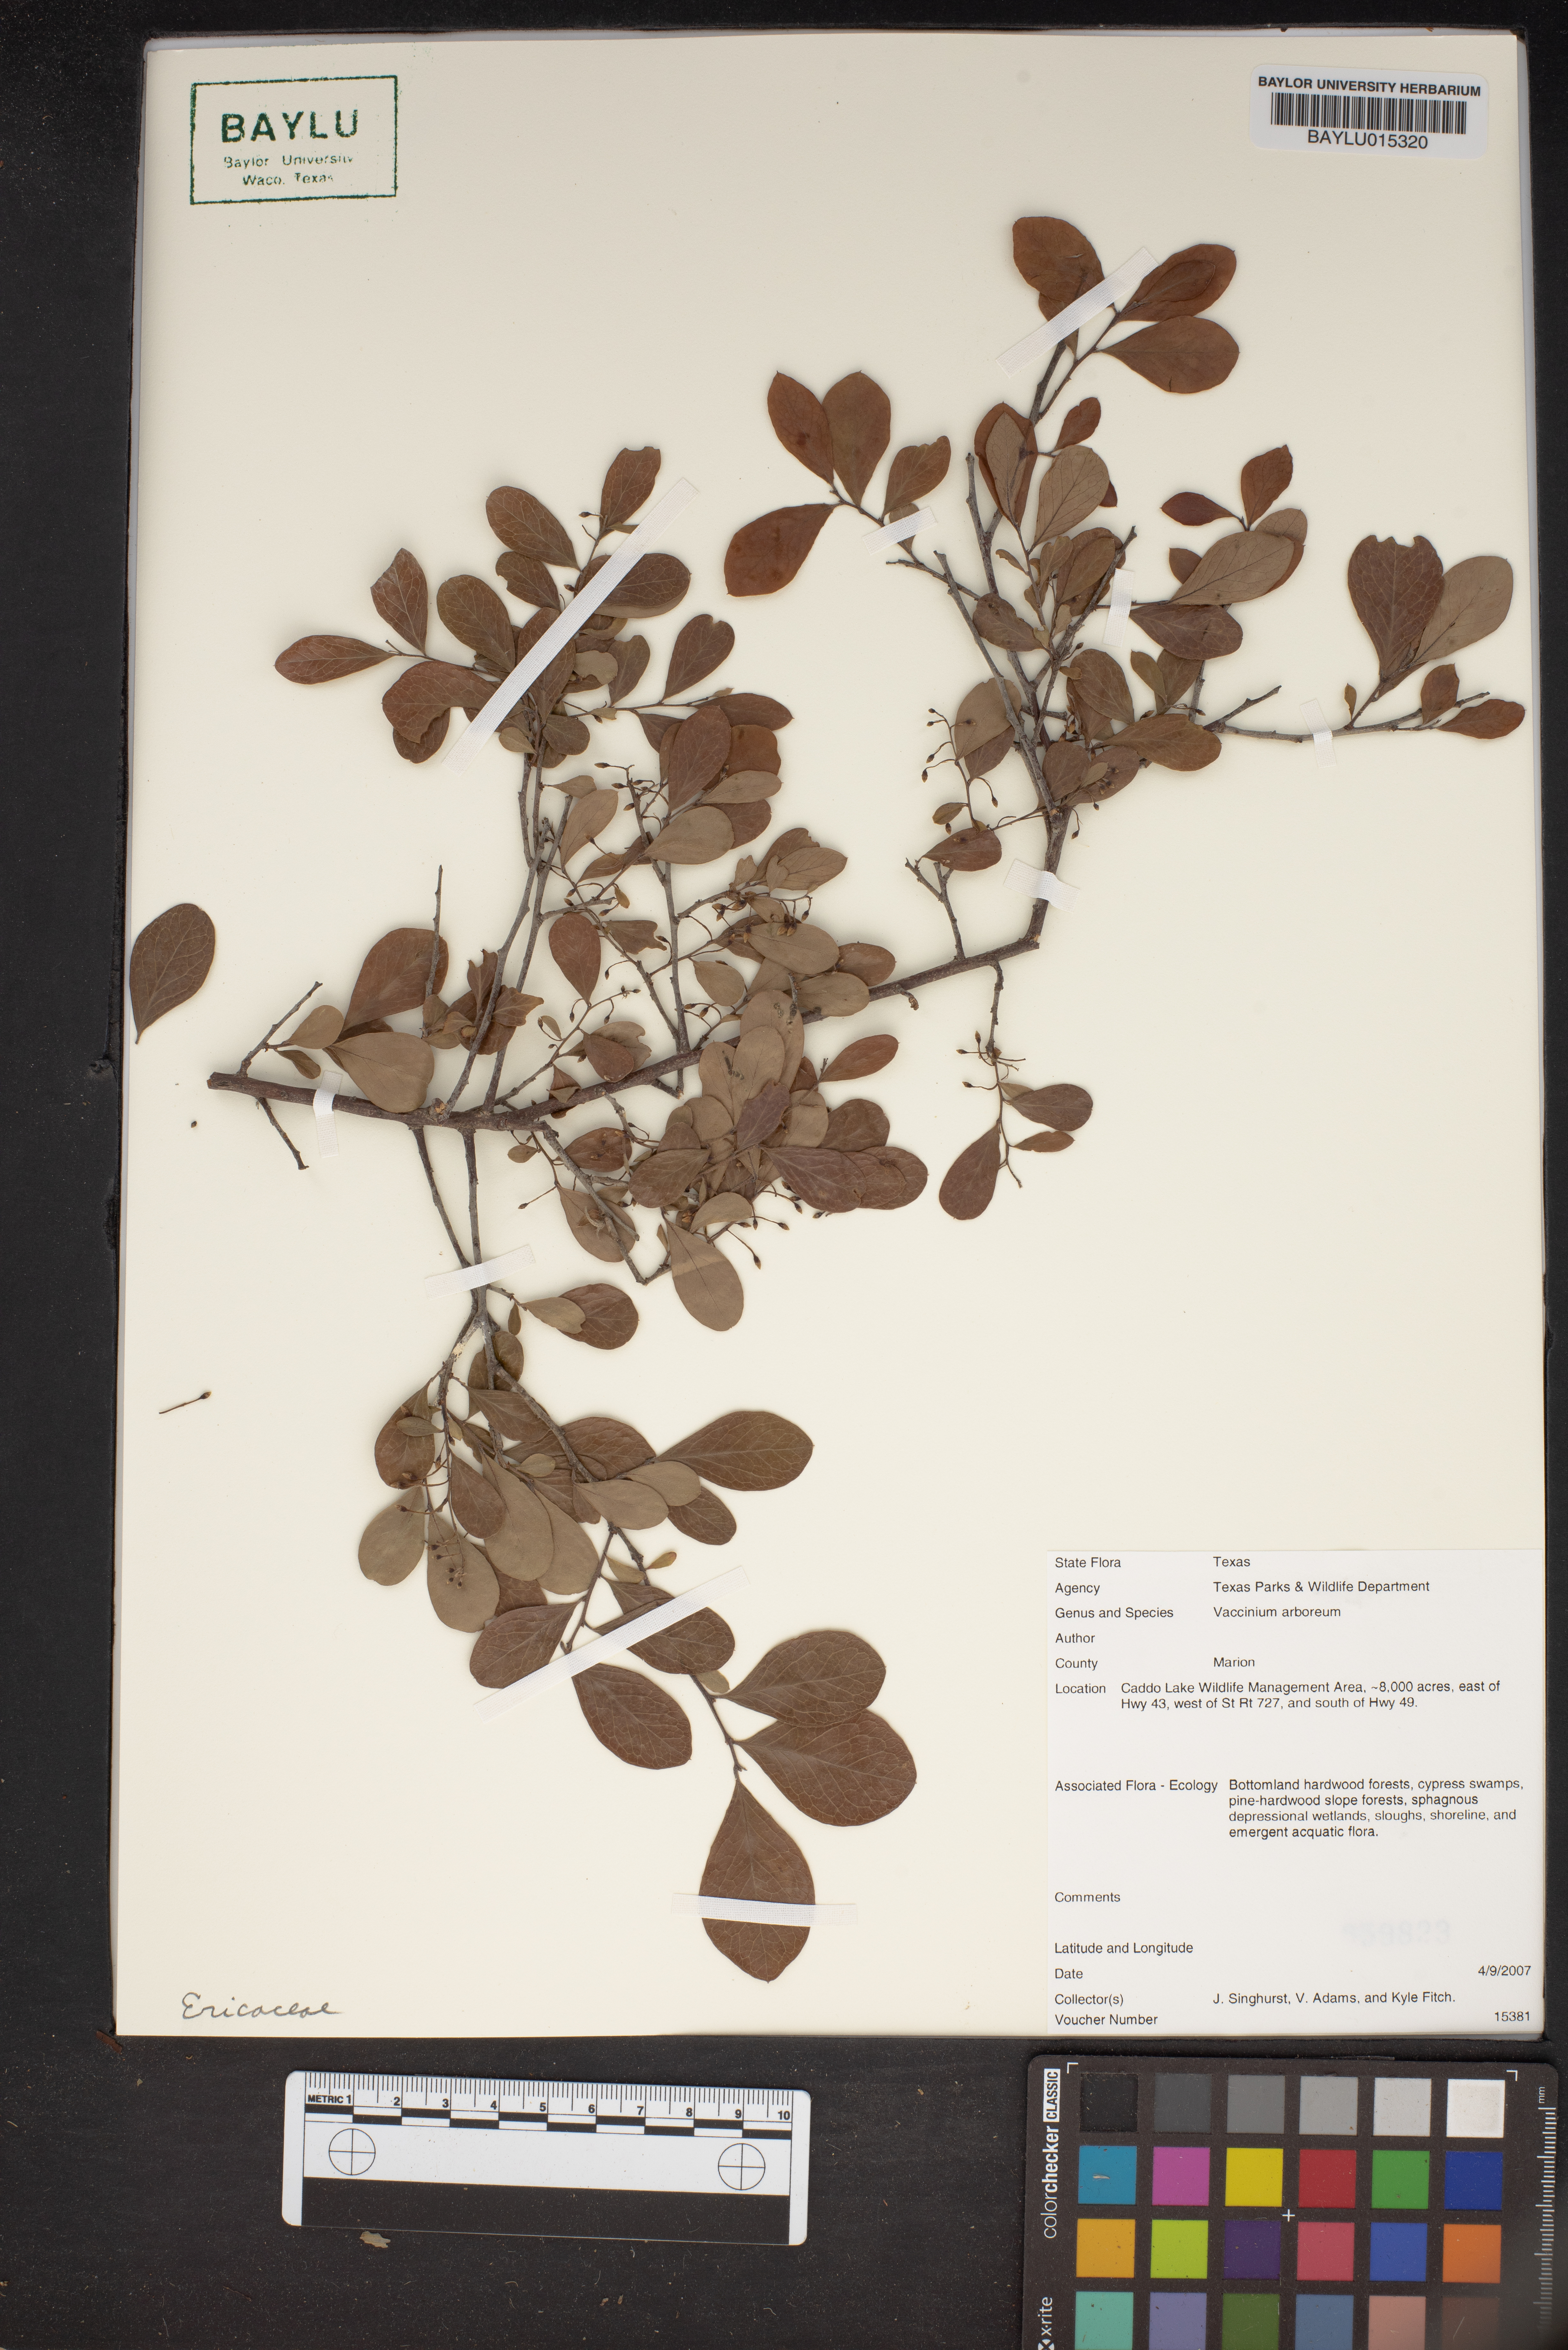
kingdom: Plantae
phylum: Tracheophyta
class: Magnoliopsida
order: Ericales
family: Ericaceae
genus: Vaccinium
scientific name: Vaccinium arboreum
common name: Farkleberry
